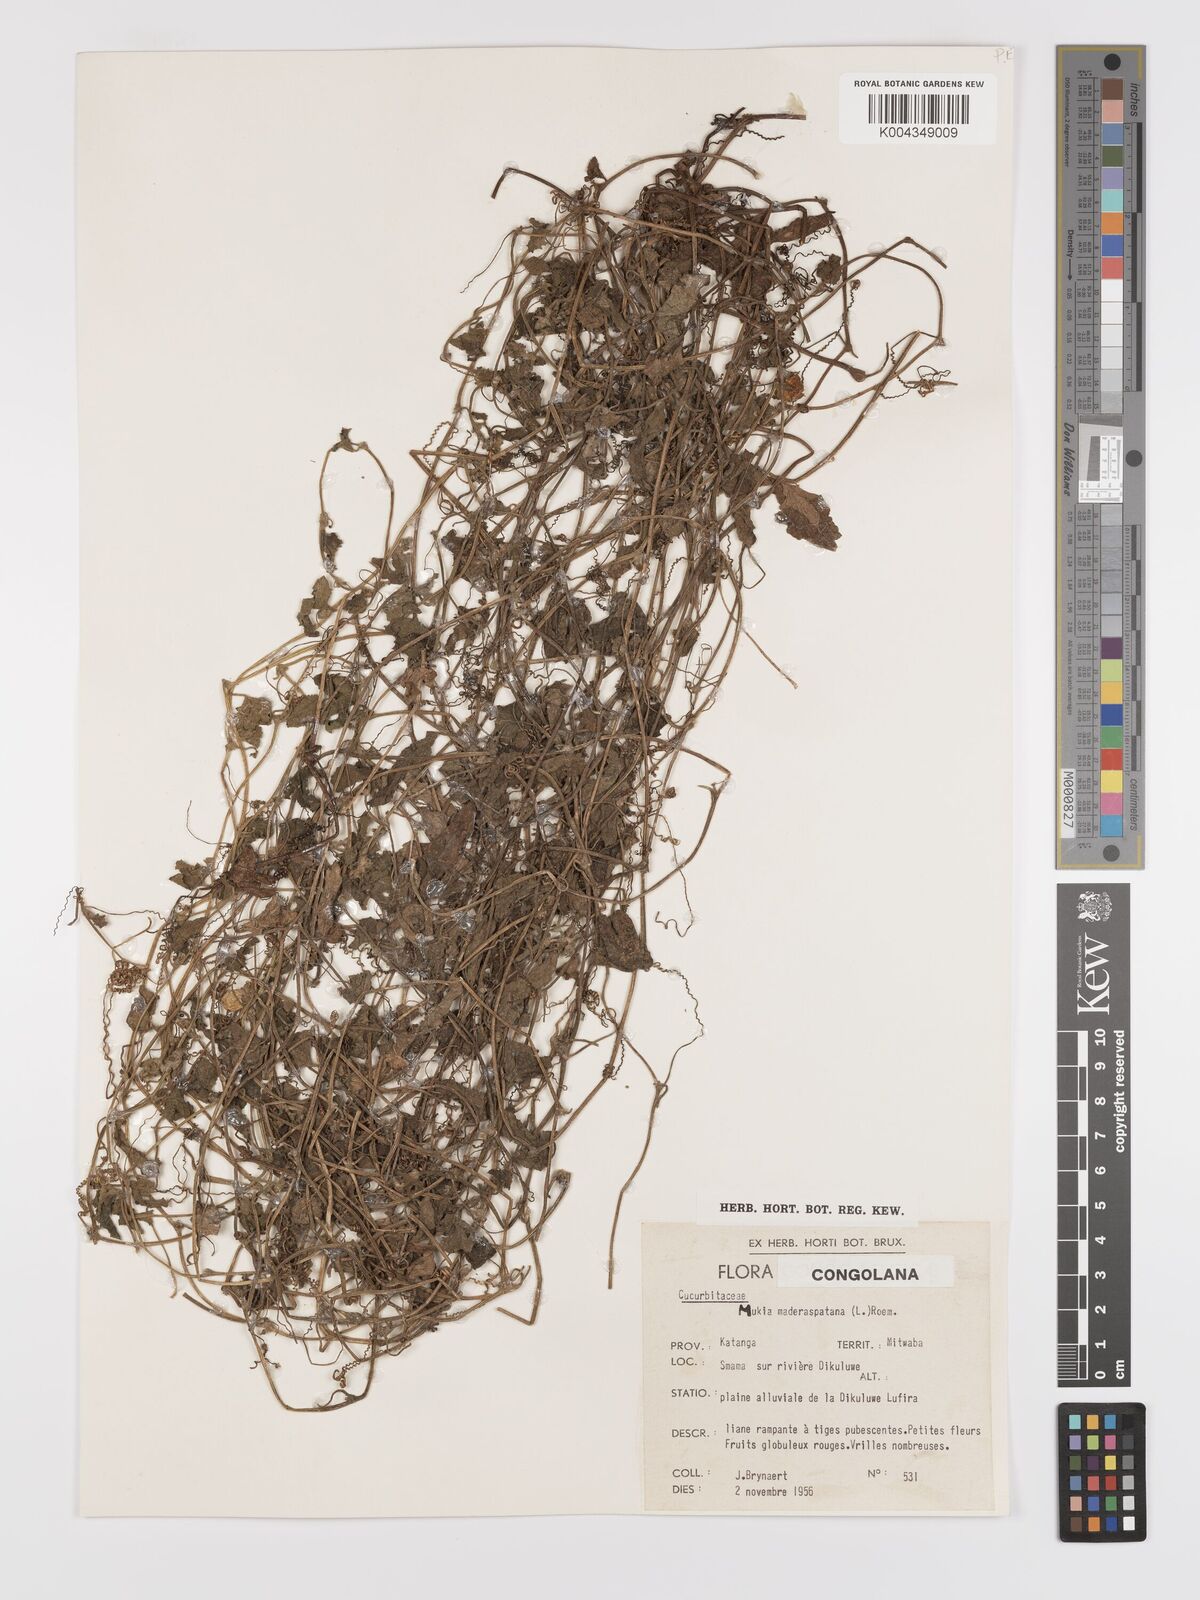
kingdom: Plantae
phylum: Tracheophyta
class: Magnoliopsida
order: Cucurbitales
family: Cucurbitaceae
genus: Cucumis
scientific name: Cucumis maderaspatanus
